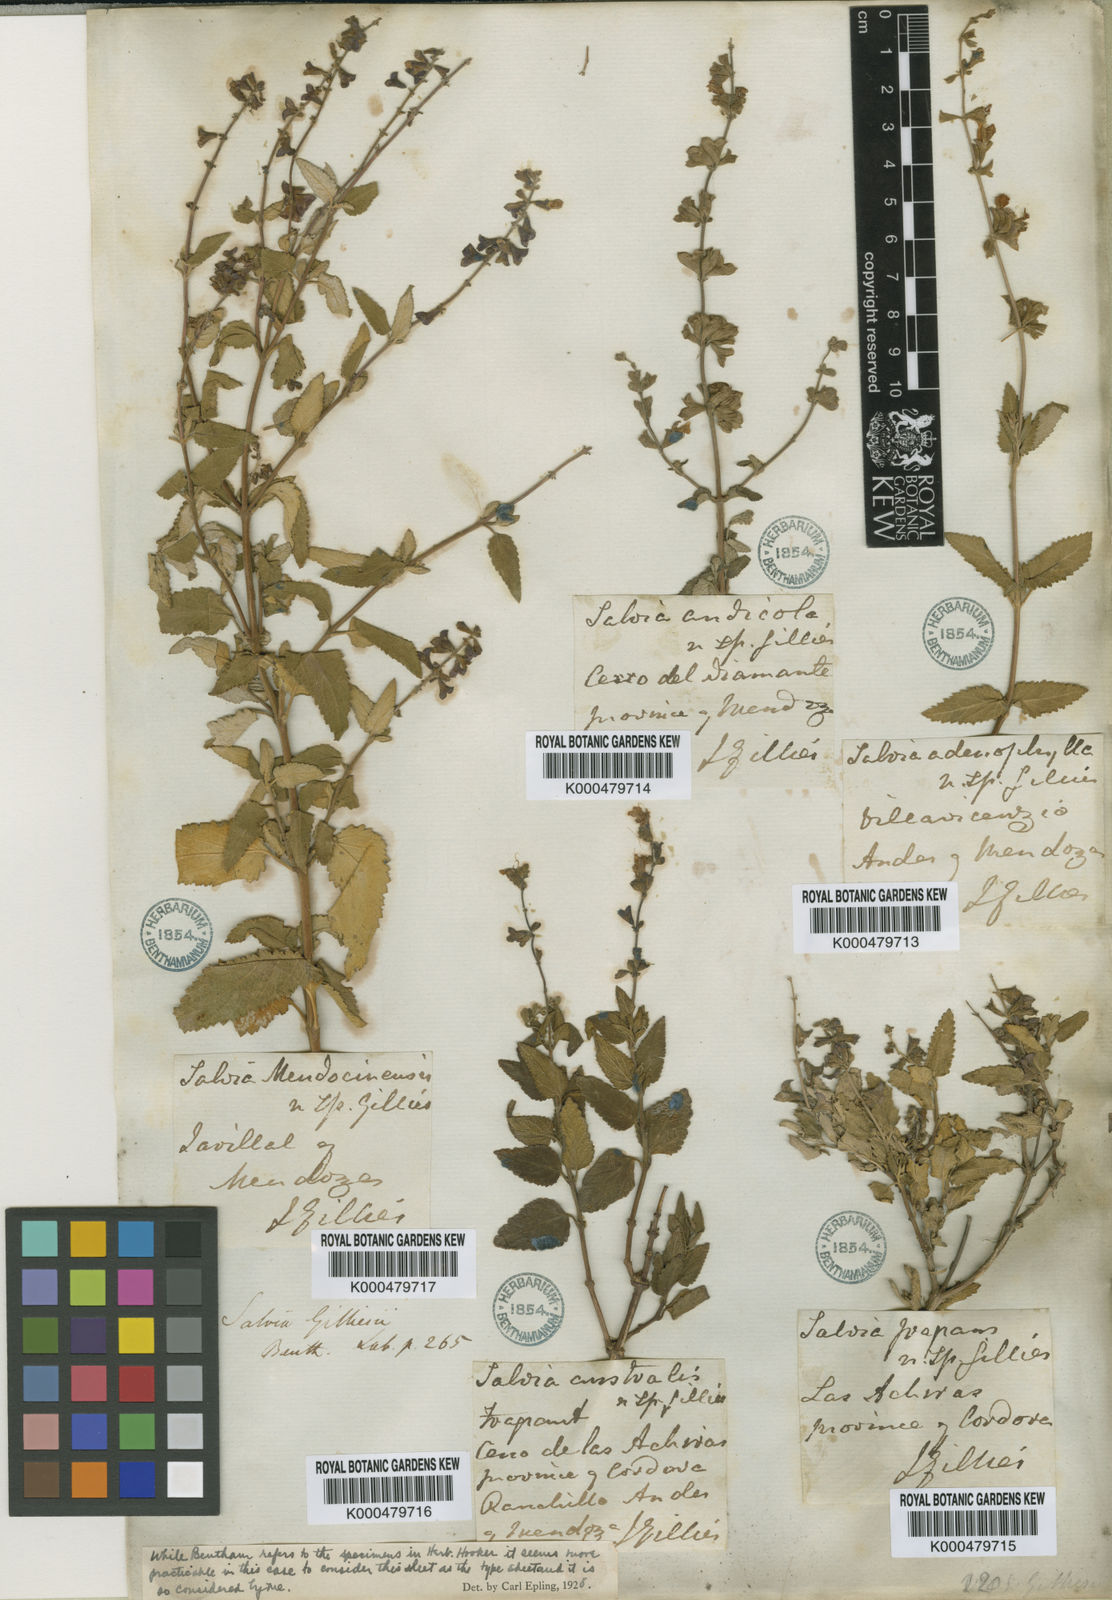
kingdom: Plantae
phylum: Tracheophyta
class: Magnoliopsida
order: Lamiales
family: Lamiaceae
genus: Salvia
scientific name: Salvia cuspidata
